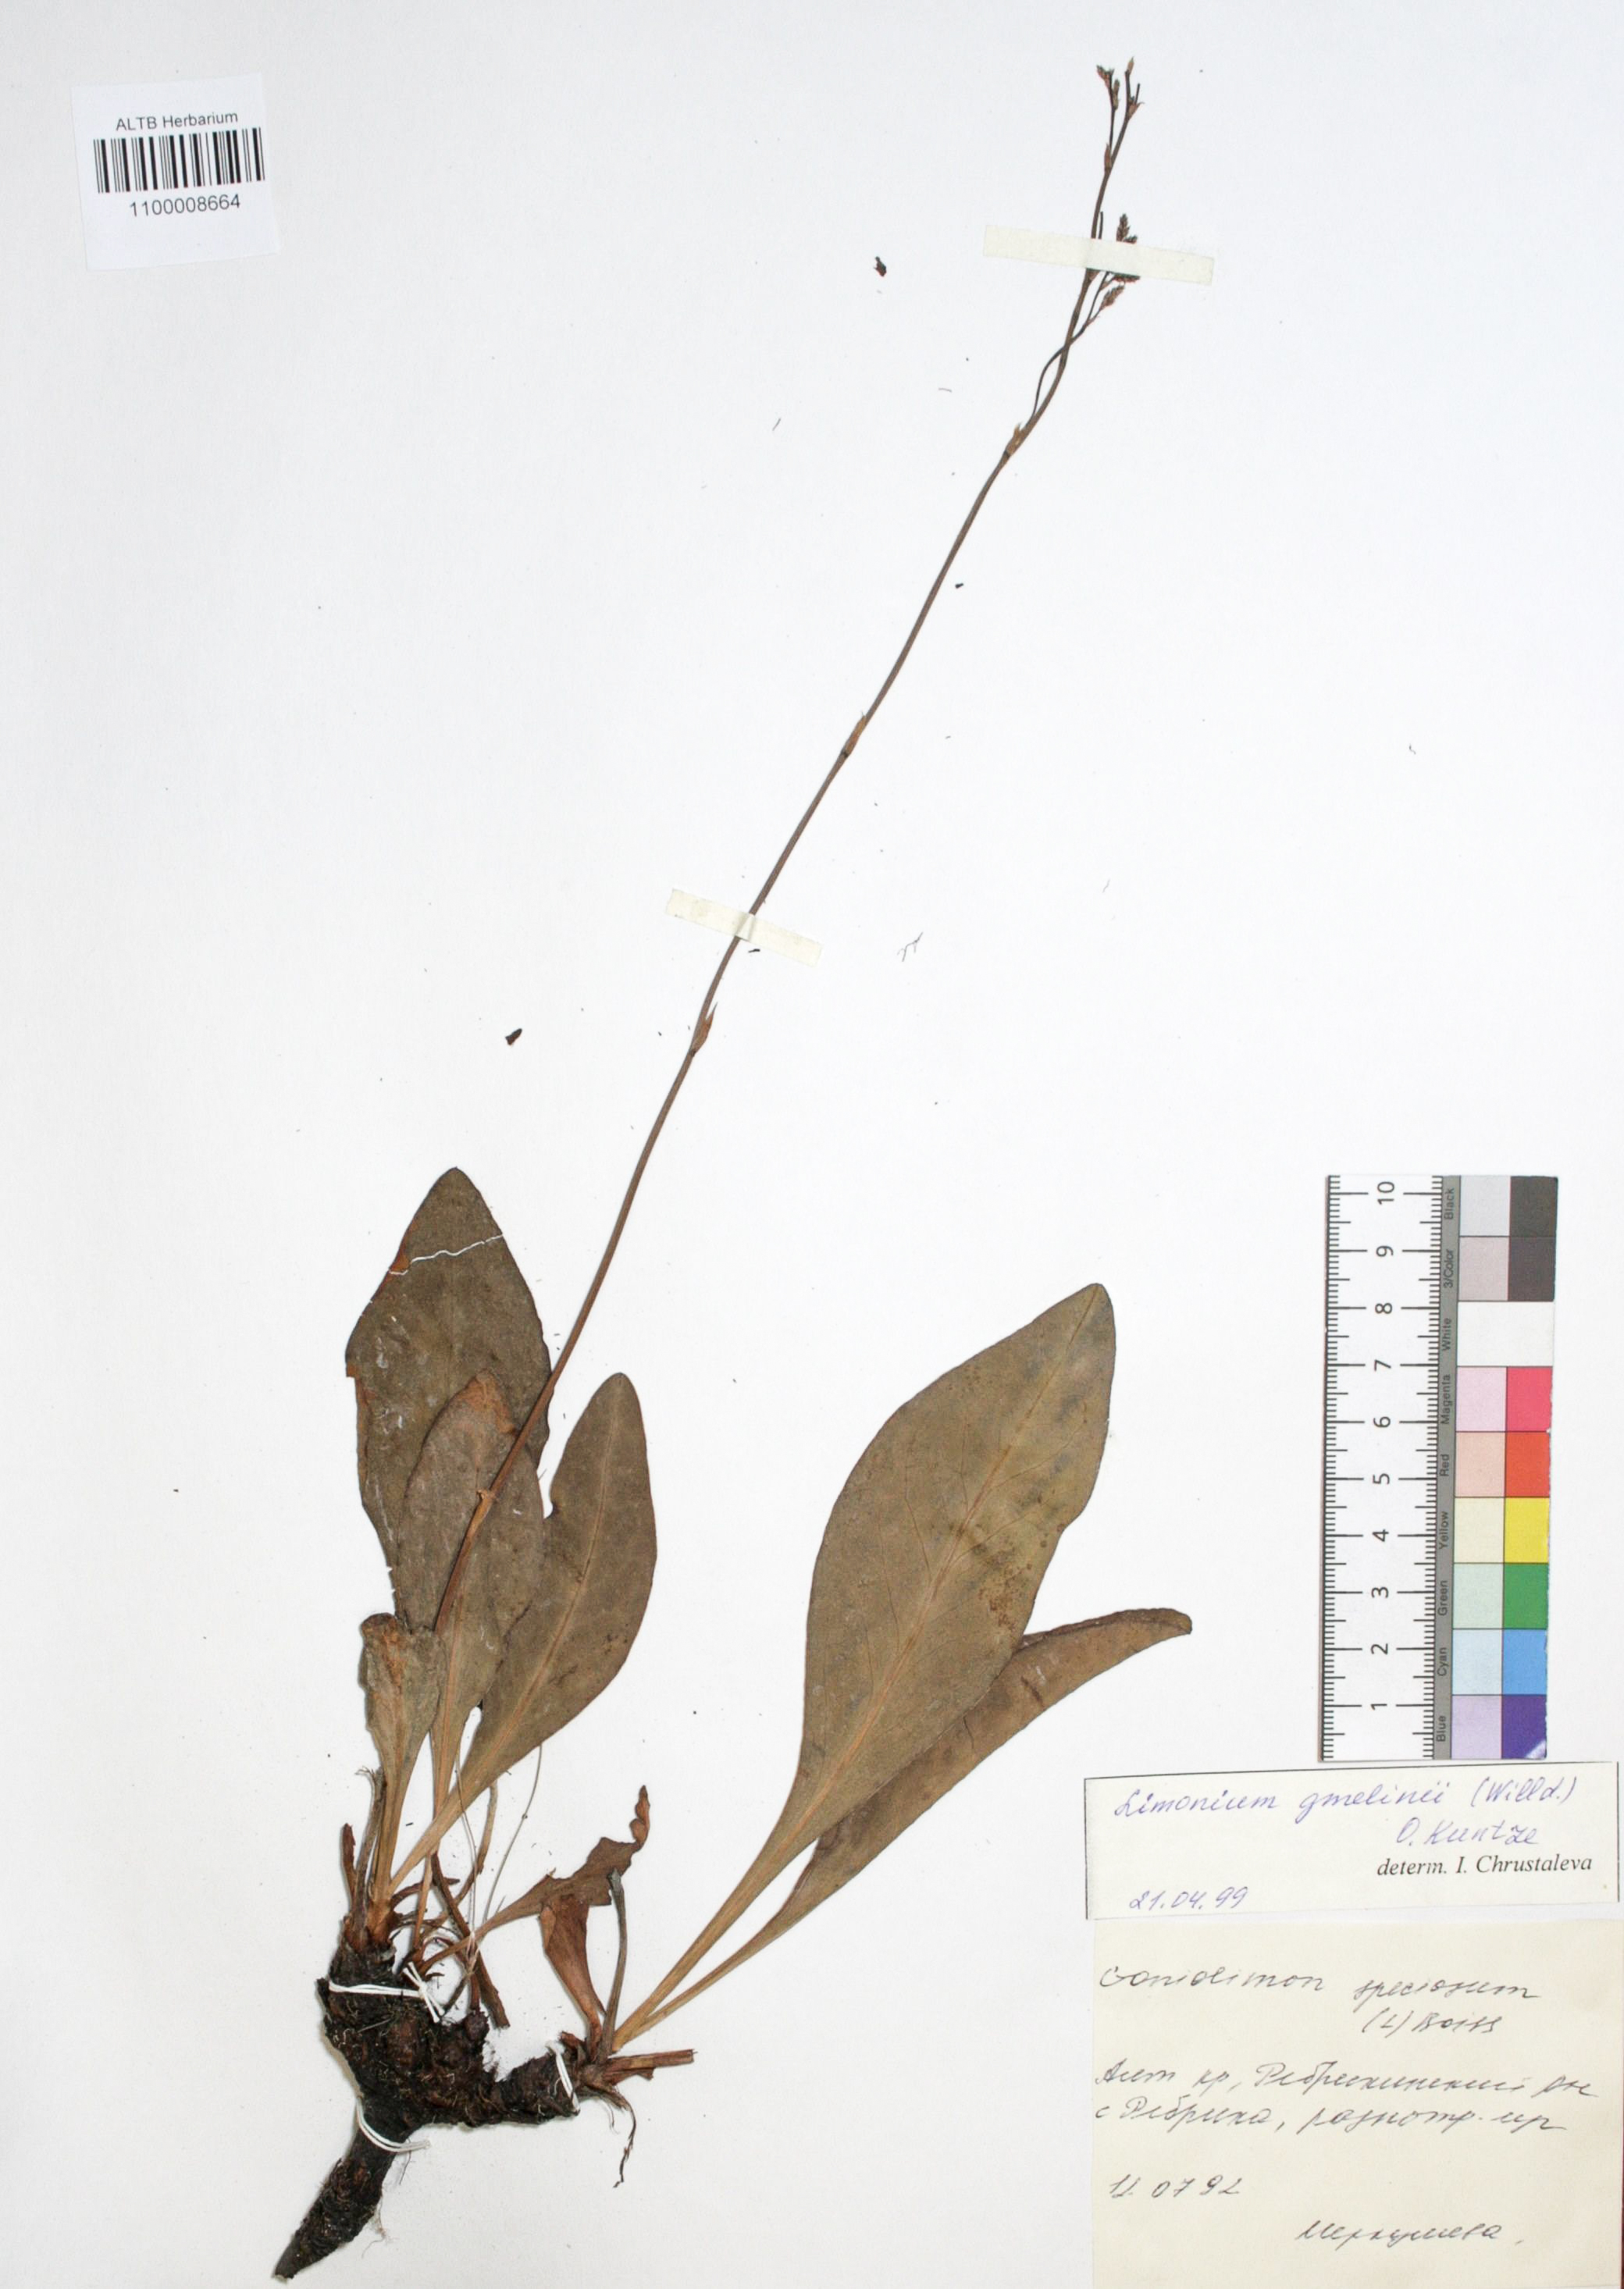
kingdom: Plantae
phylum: Tracheophyta
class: Magnoliopsida
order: Caryophyllales
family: Plumbaginaceae
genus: Limonium
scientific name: Limonium gmelini
